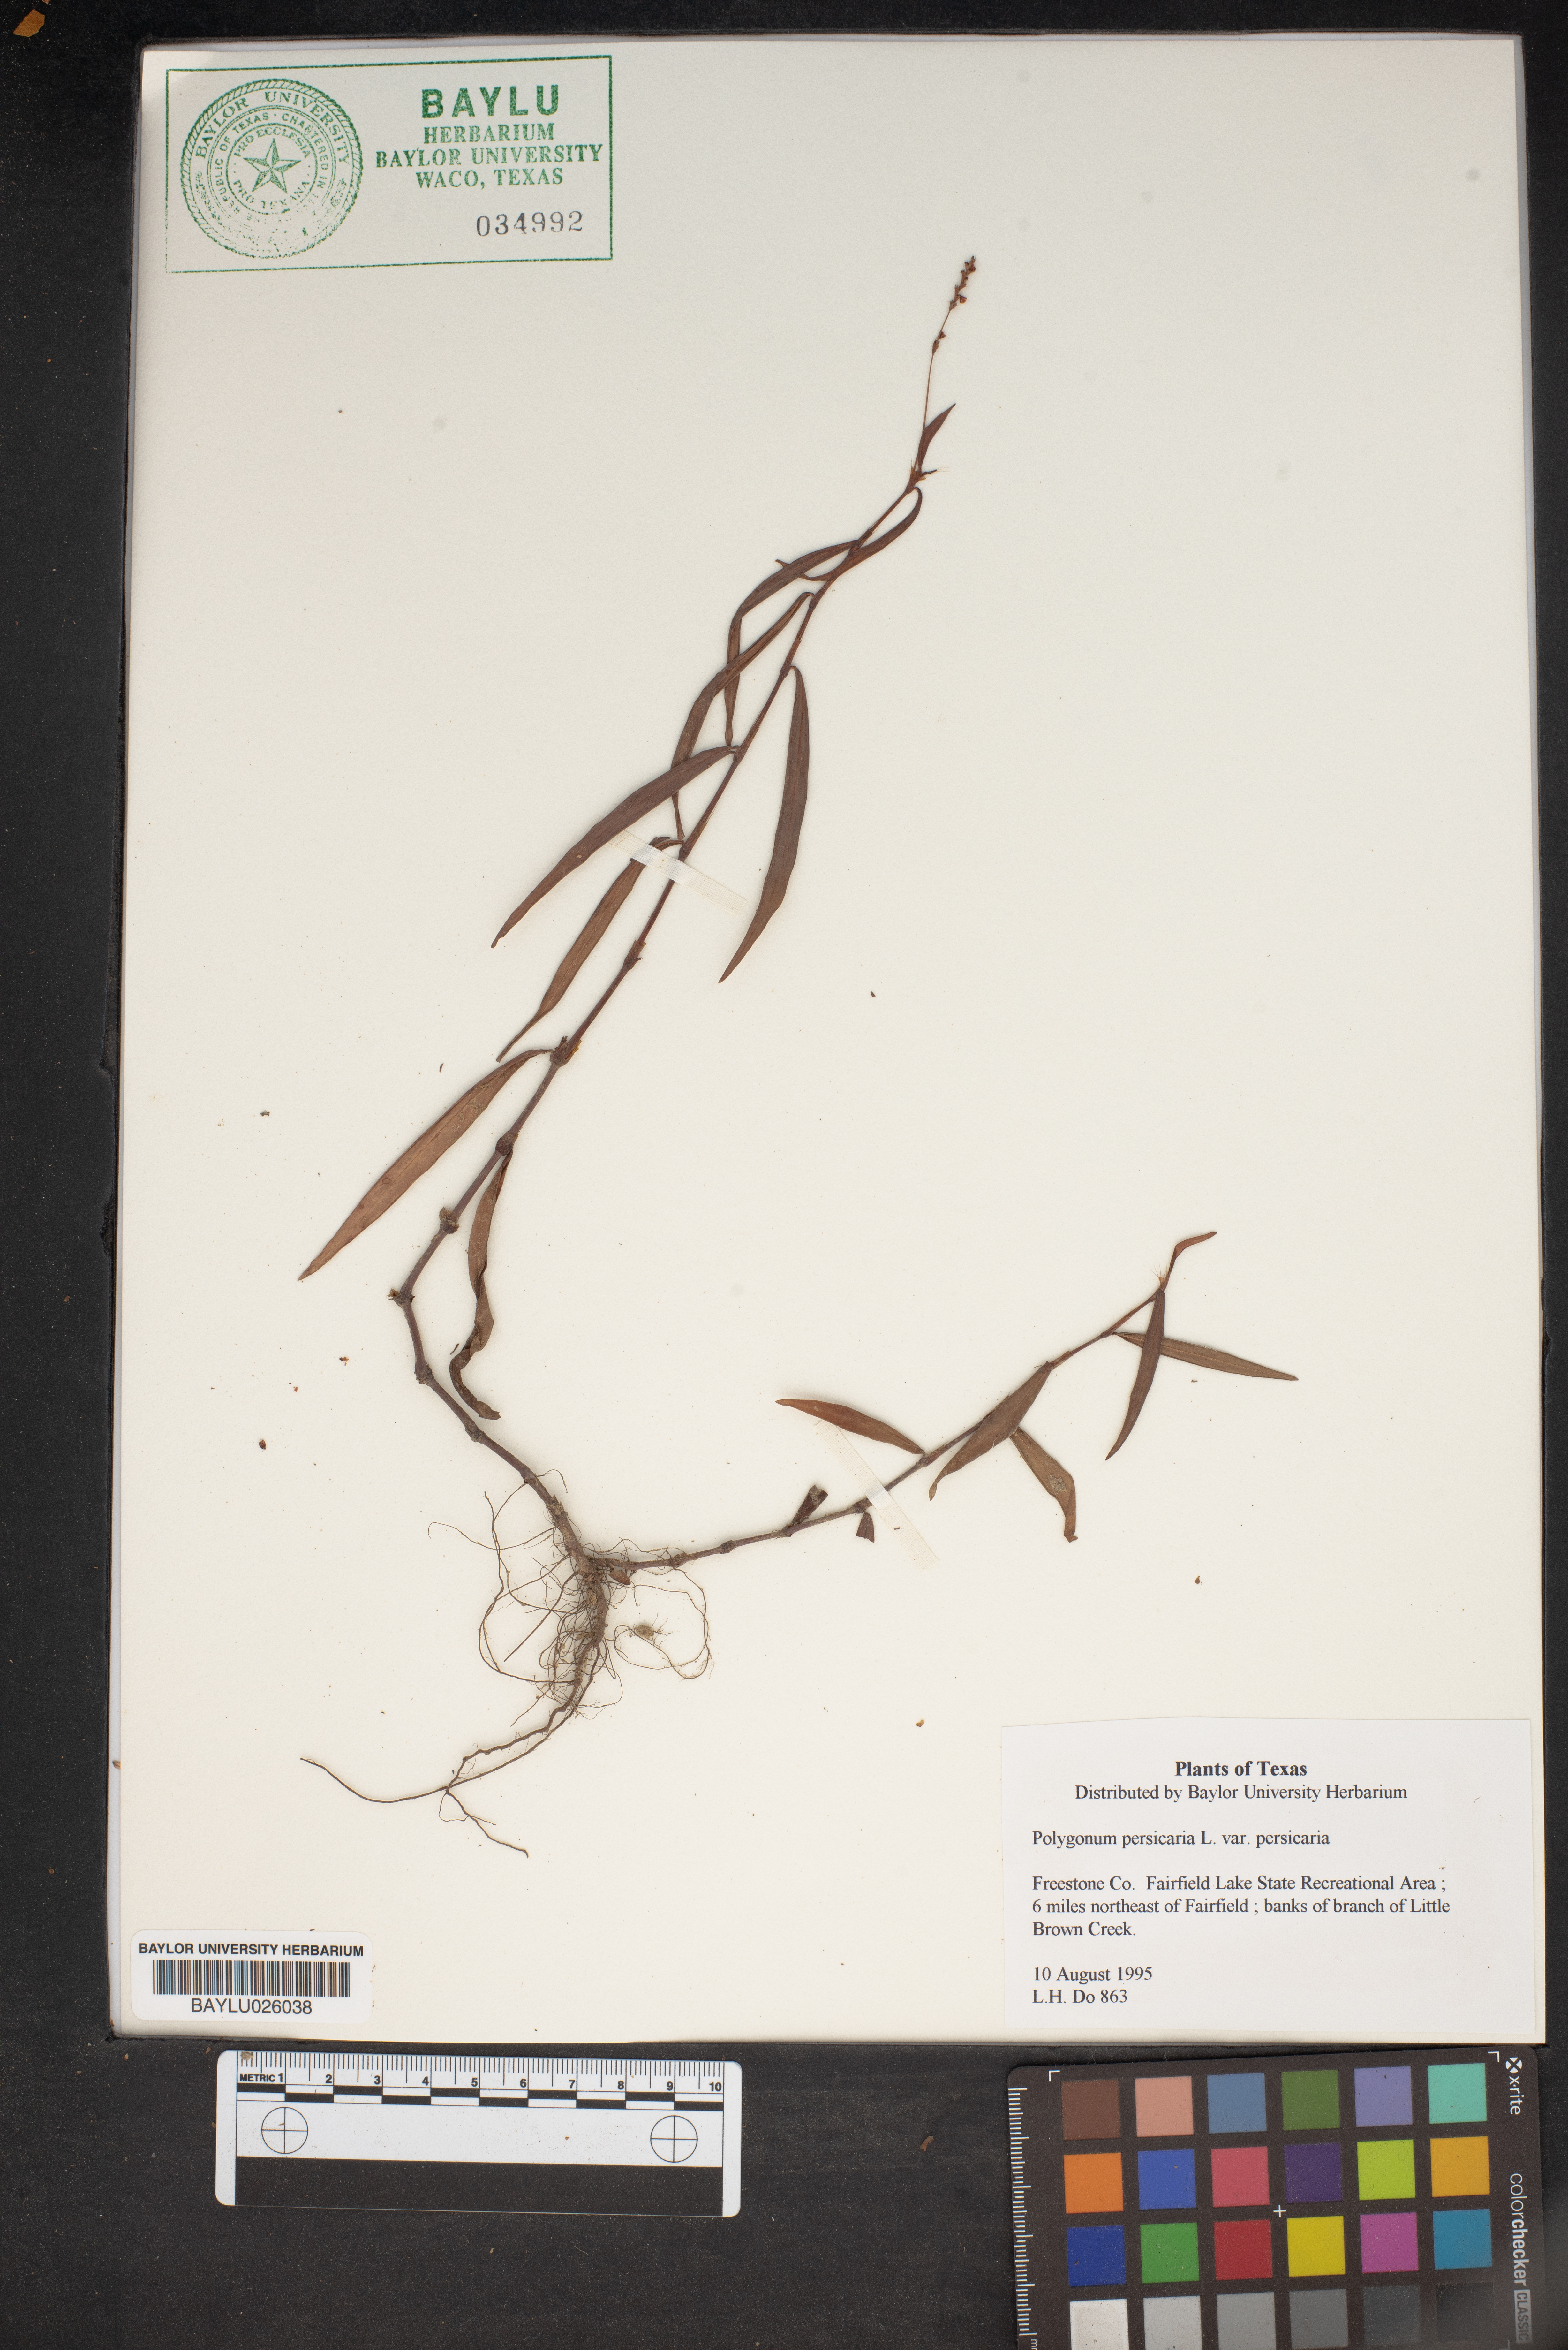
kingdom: Plantae
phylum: Tracheophyta
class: Magnoliopsida
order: Caryophyllales
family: Polygonaceae
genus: Persicaria
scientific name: Persicaria maculosa
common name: Redshank
